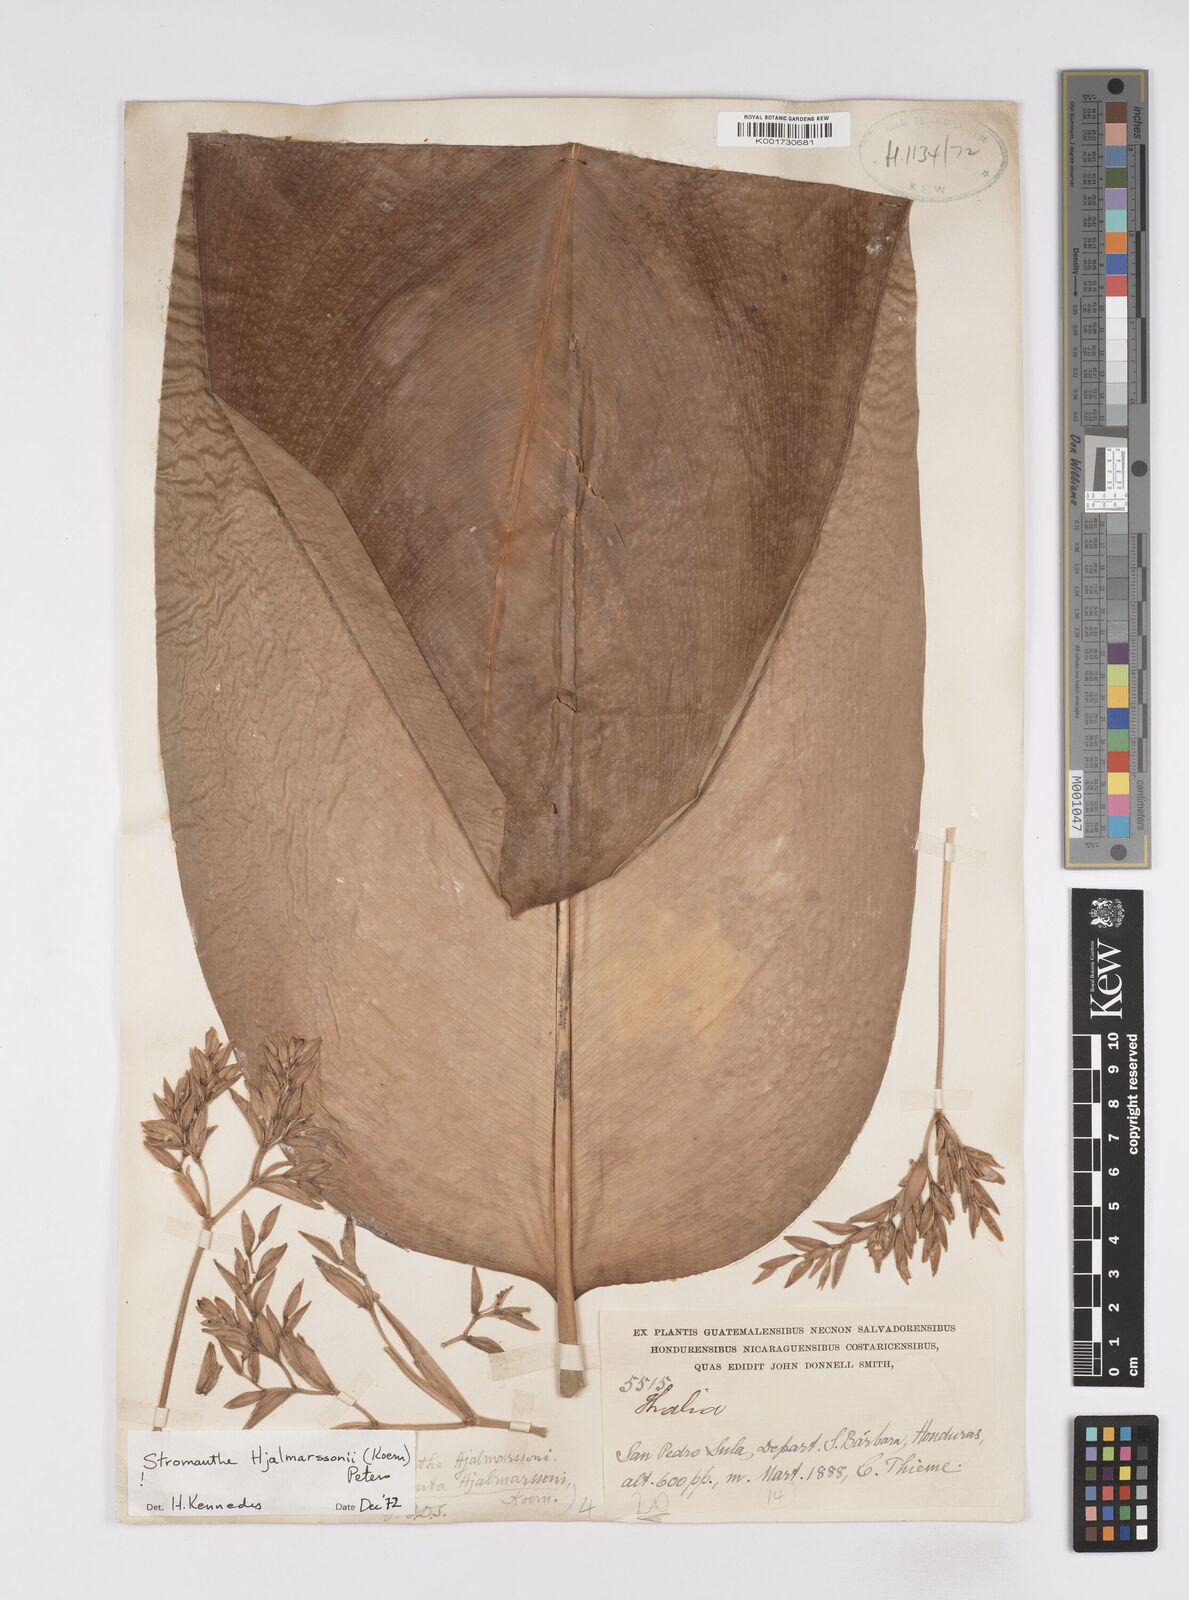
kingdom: Plantae
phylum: Tracheophyta
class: Liliopsida
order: Zingiberales
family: Marantaceae
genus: Stromanthe
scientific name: Stromanthe hjalmarssonii
